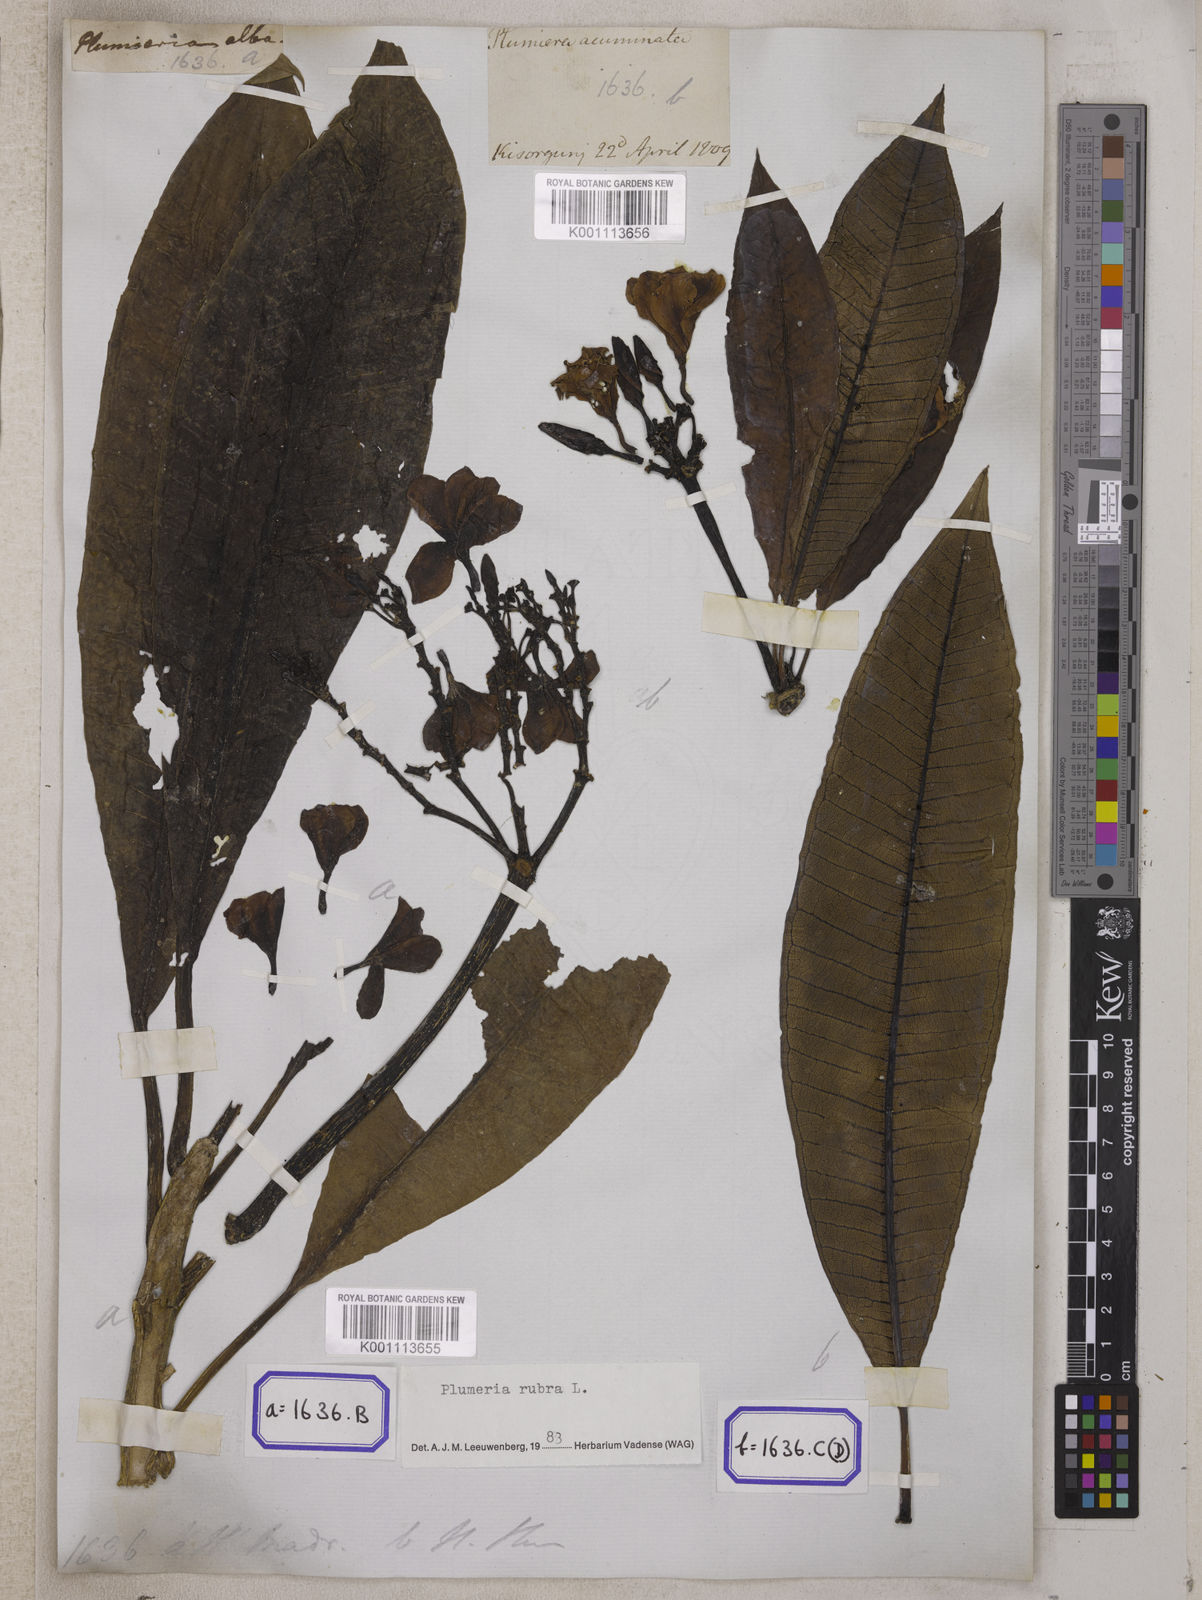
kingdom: Plantae
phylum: Tracheophyta
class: Magnoliopsida
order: Gentianales
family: Apocynaceae
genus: Plumeria
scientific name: Plumeria rubra
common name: Pagoda-tree
